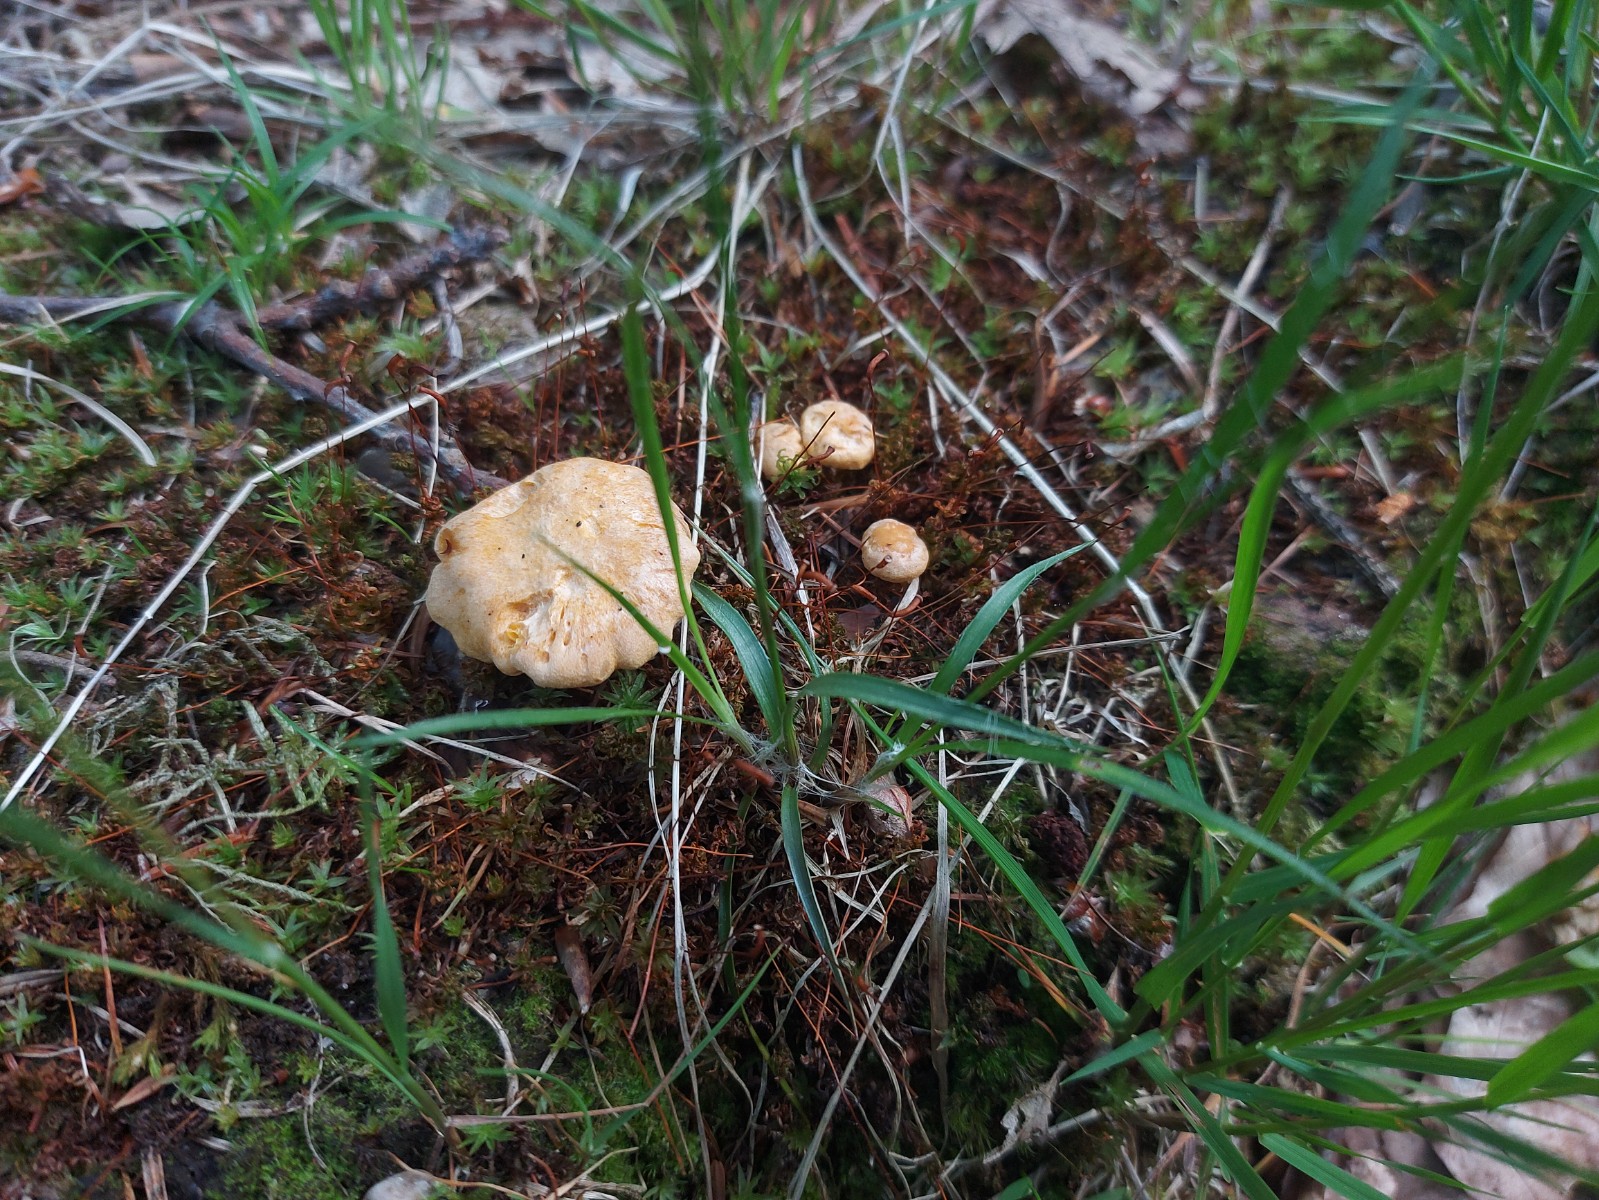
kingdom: Fungi
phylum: Basidiomycota
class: Agaricomycetes
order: Cantharellales
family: Hydnaceae
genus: Cantharellus
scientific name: Cantharellus cibarius
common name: almindelig kantarel
